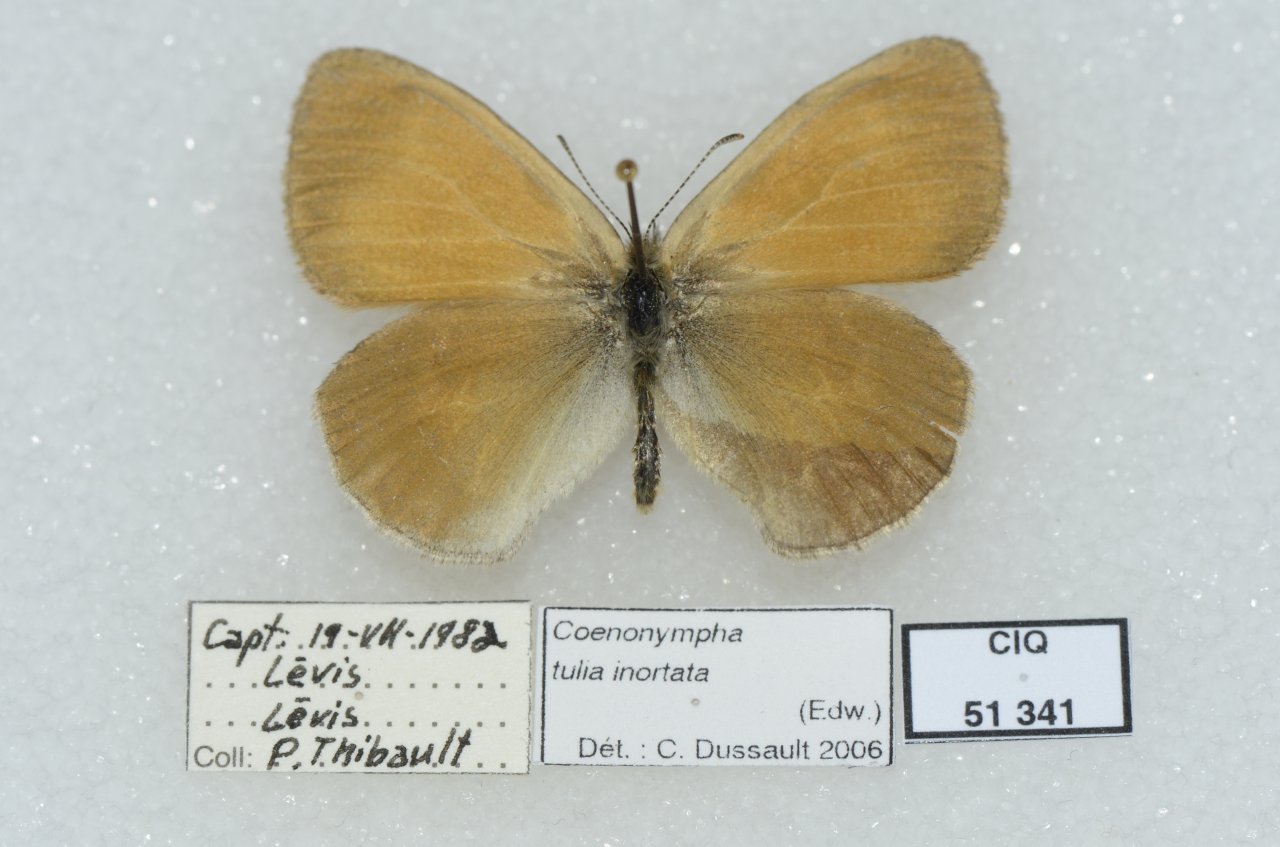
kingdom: Animalia
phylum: Arthropoda
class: Insecta
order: Lepidoptera
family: Nymphalidae
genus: Coenonympha
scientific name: Coenonympha tullia
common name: Large Heath
